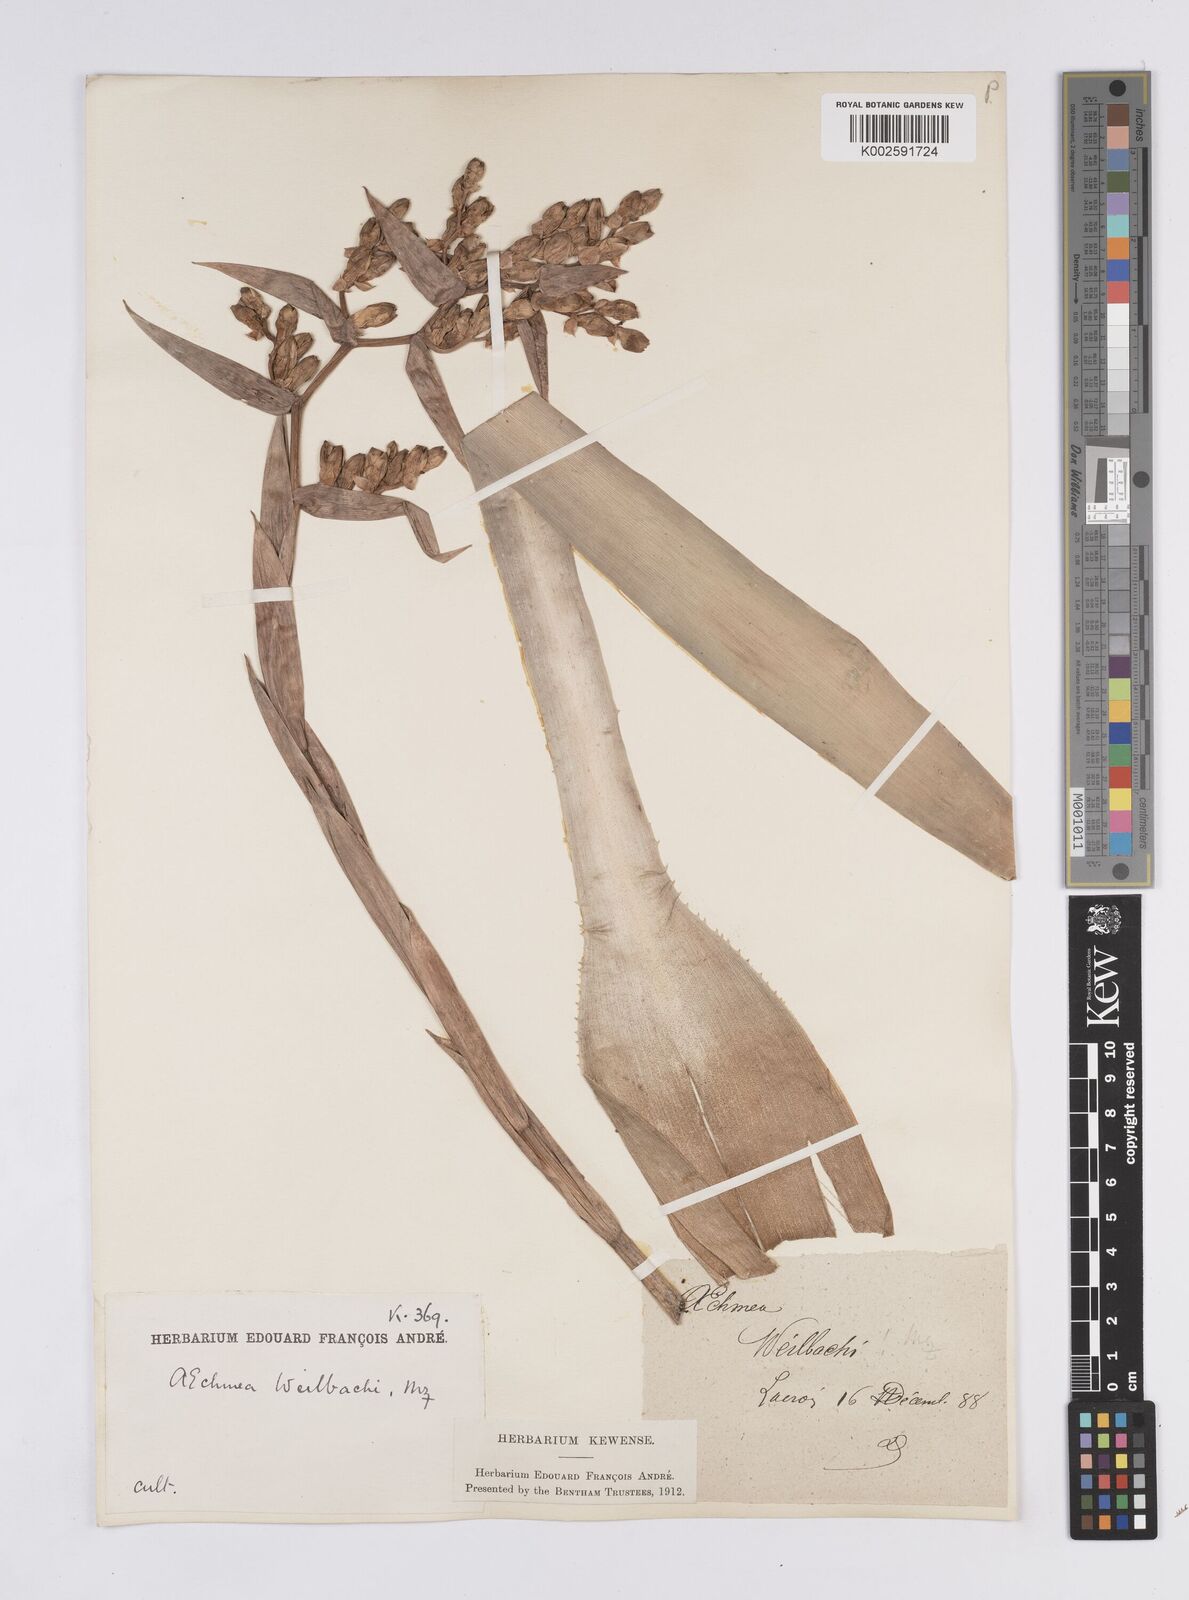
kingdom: Plantae
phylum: Tracheophyta
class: Liliopsida
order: Poales
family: Bromeliaceae
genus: Aechmea
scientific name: Aechmea weilbachii
